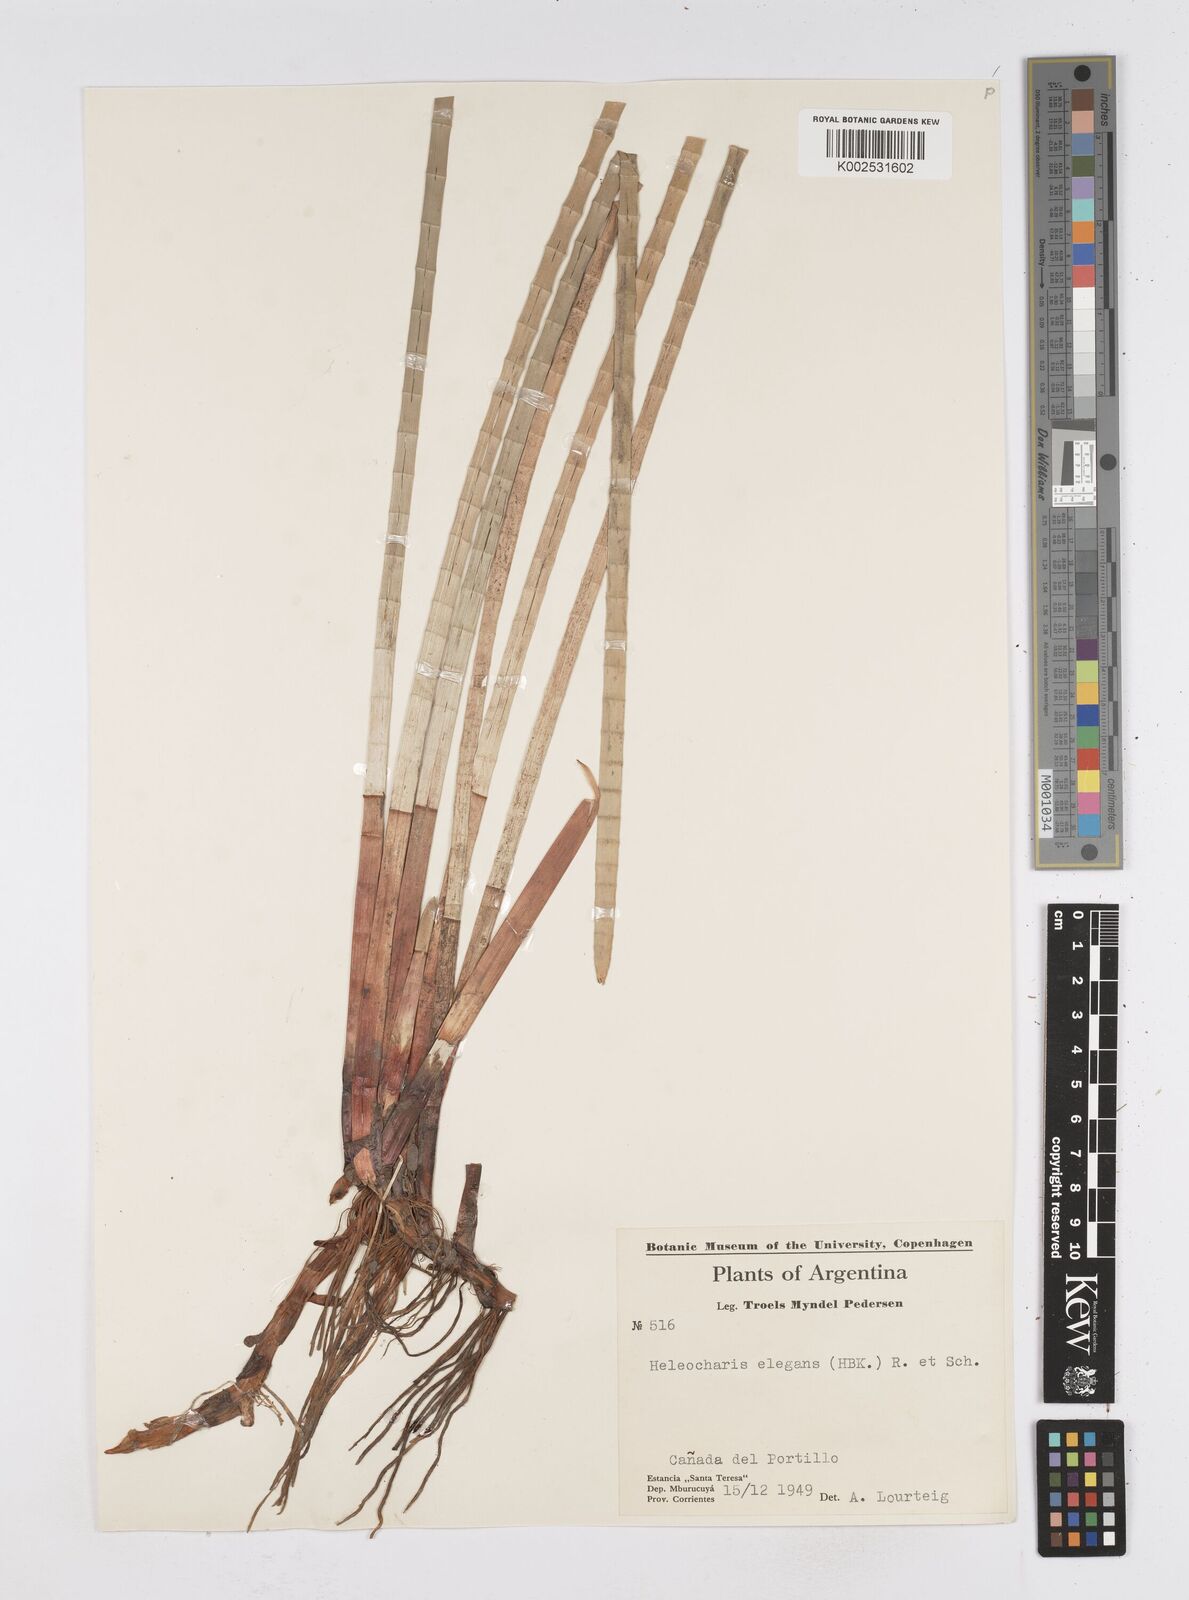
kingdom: Plantae
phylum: Tracheophyta
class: Liliopsida
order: Poales
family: Cyperaceae
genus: Eleocharis
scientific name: Eleocharis elegans
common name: Elegant spike-rush
